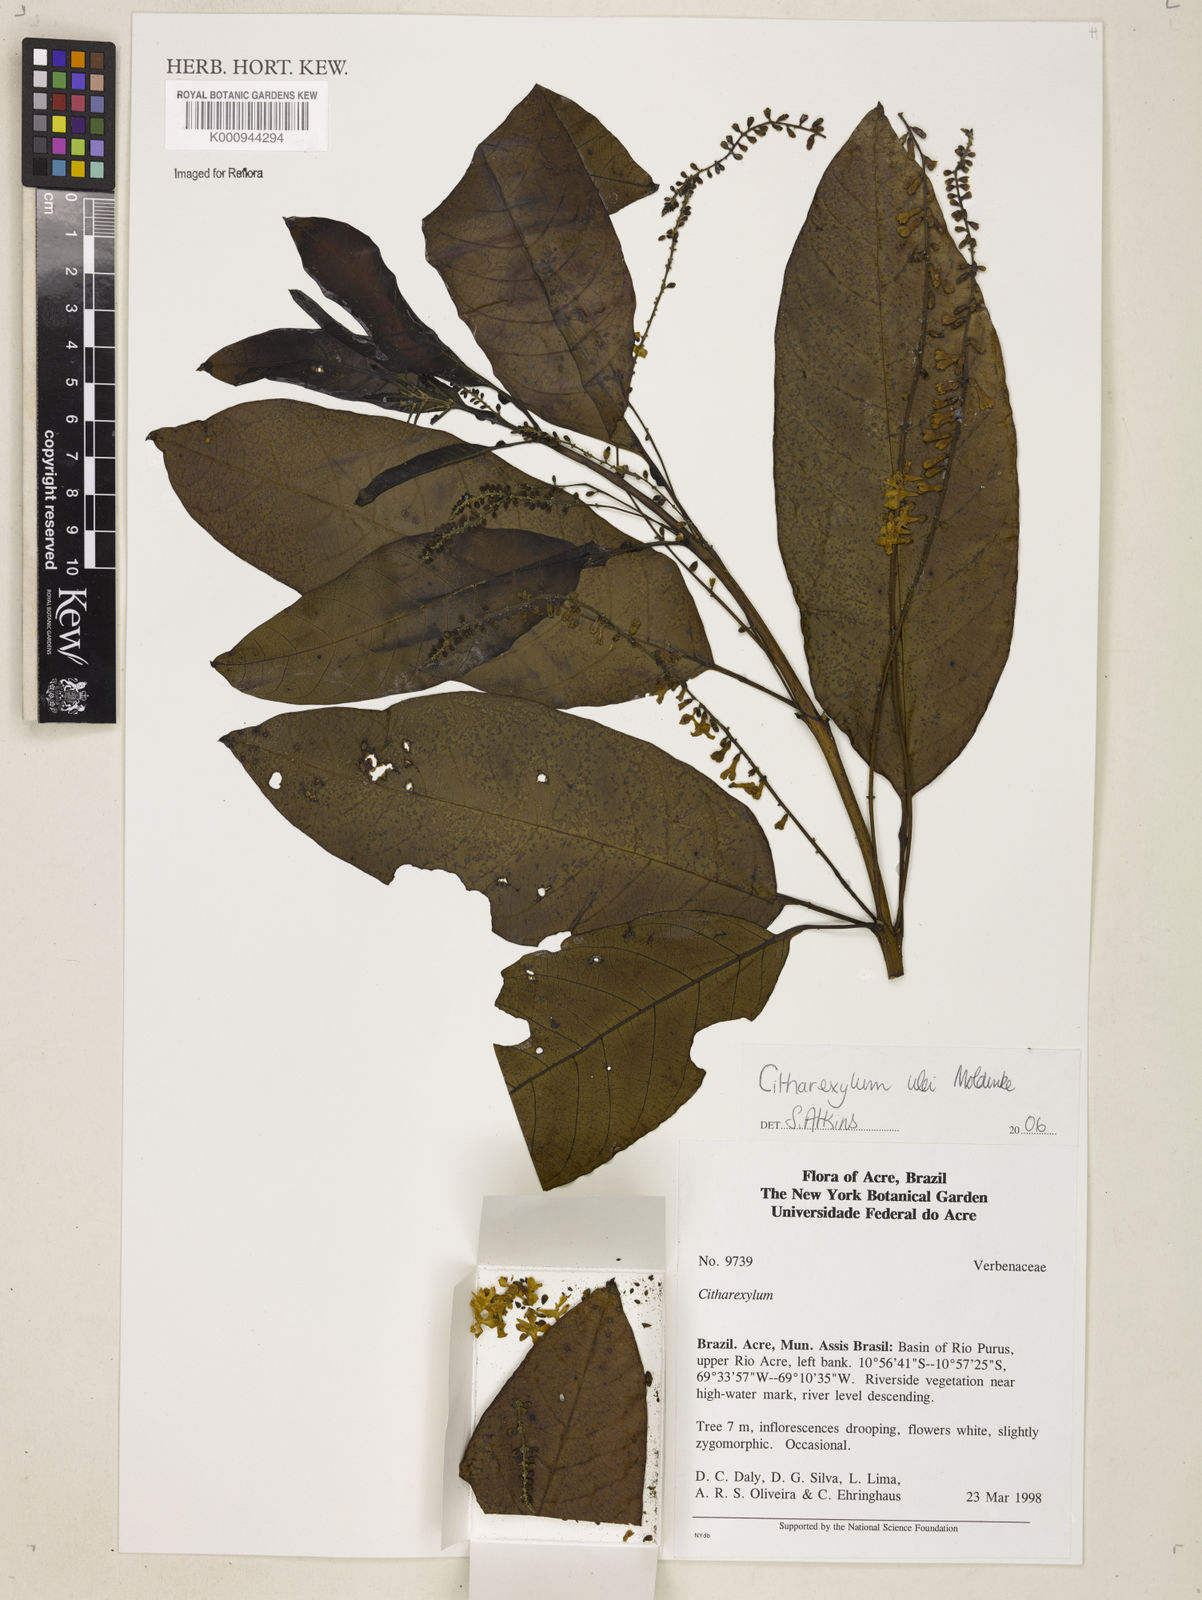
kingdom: Plantae
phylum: Tracheophyta
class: Magnoliopsida
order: Lamiales
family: Verbenaceae
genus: Citharexylum
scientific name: Citharexylum ulei
